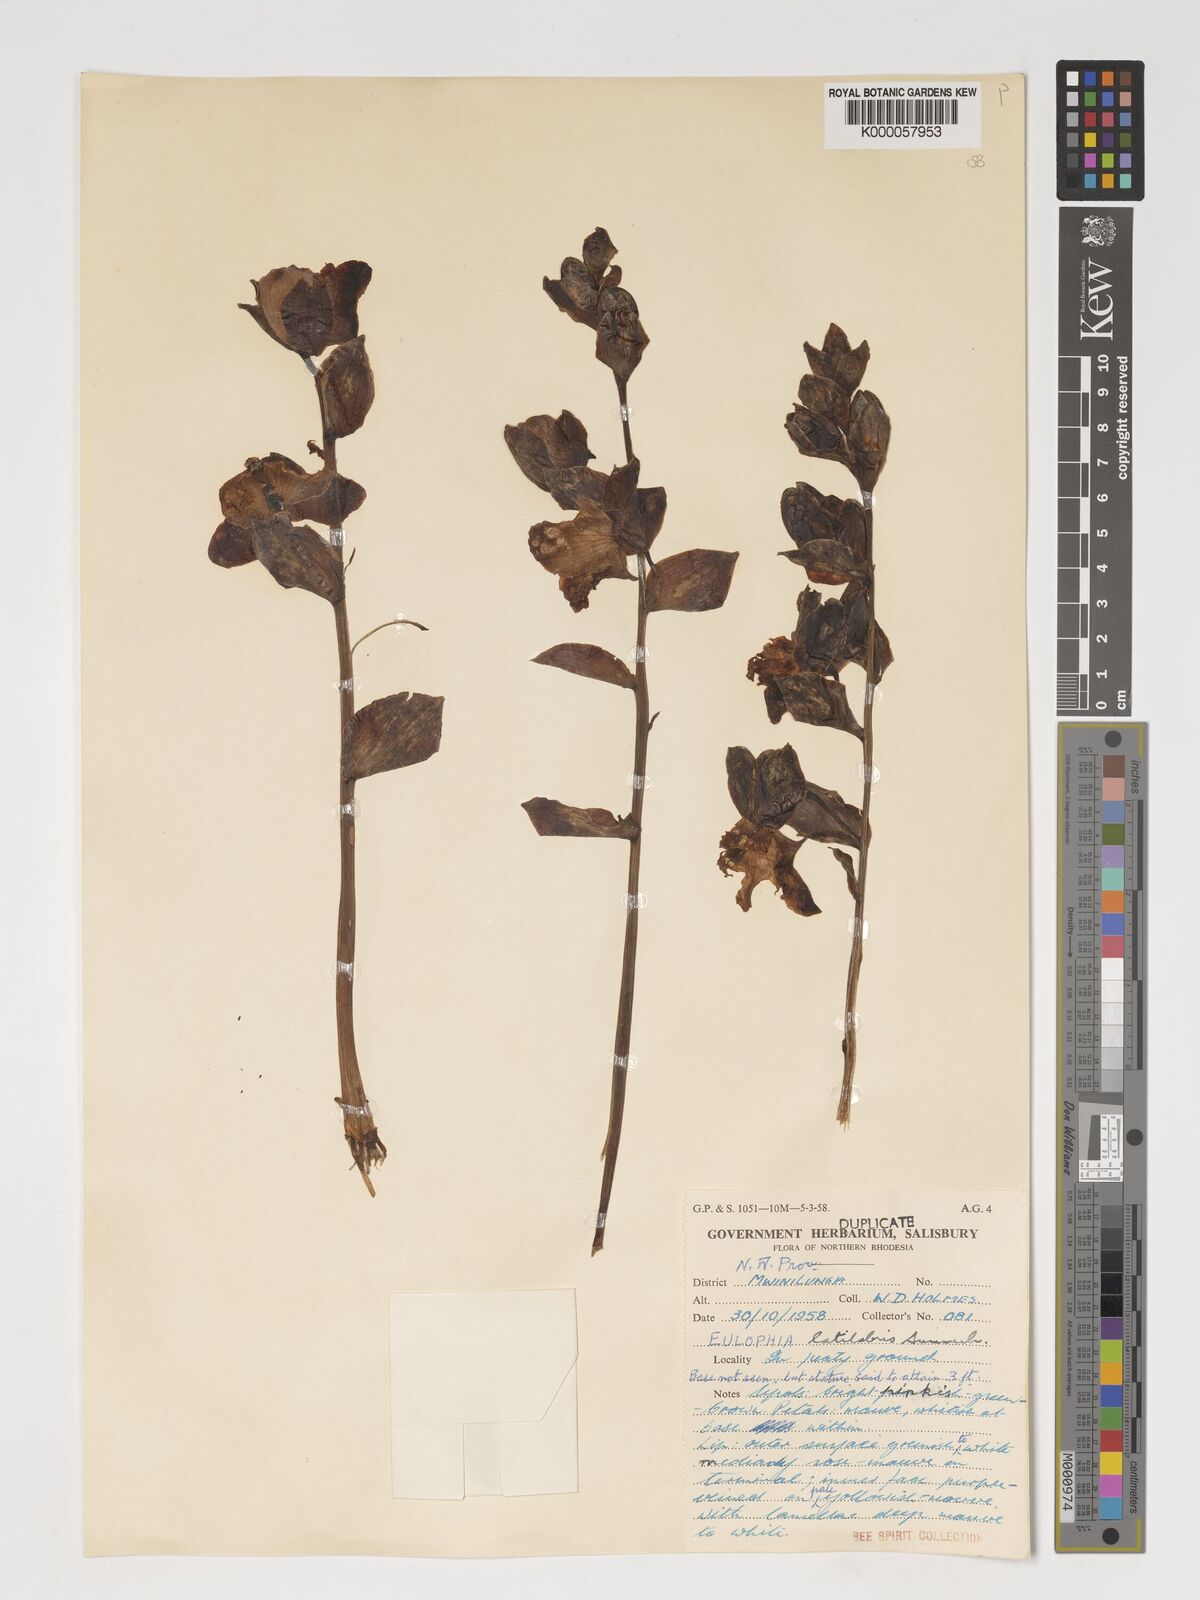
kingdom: Plantae
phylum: Tracheophyta
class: Liliopsida
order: Asparagales
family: Orchidaceae
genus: Eulophia
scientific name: Eulophia latilabris
